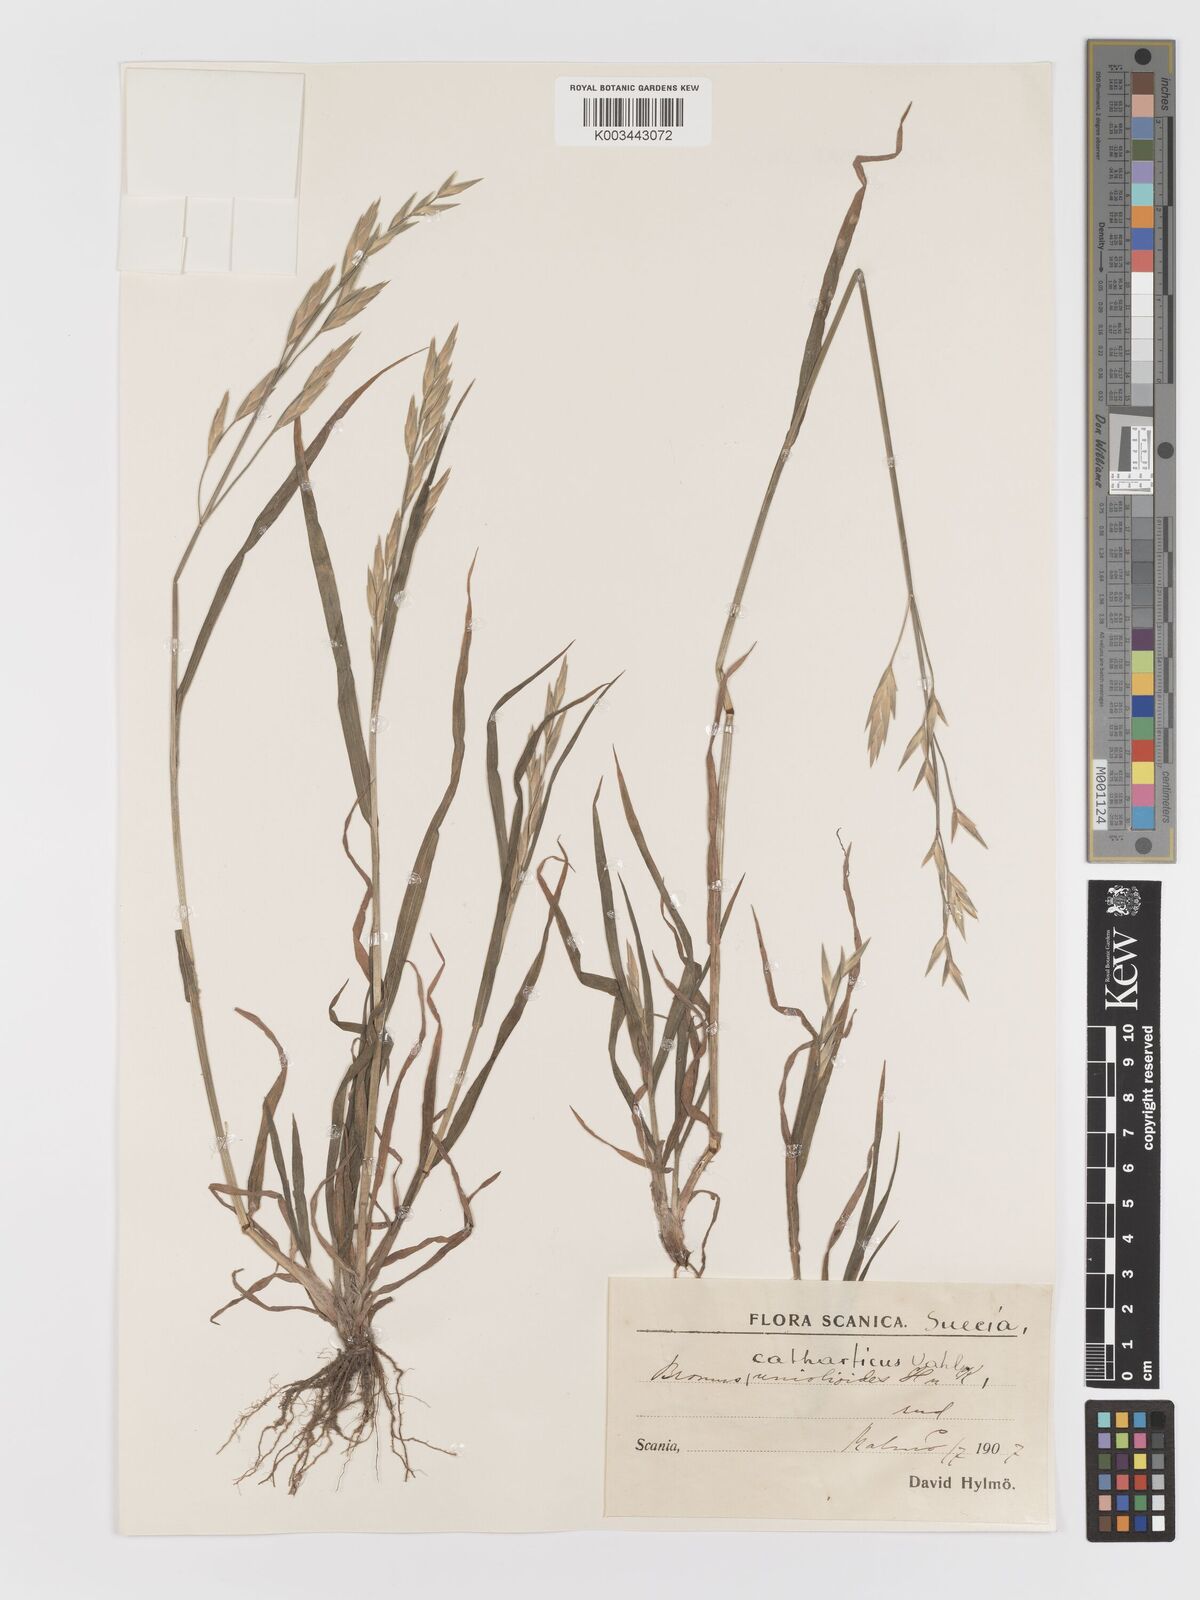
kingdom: Plantae
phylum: Tracheophyta
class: Liliopsida
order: Poales
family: Poaceae
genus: Bromus
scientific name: Bromus catharticus
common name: Rescuegrass
